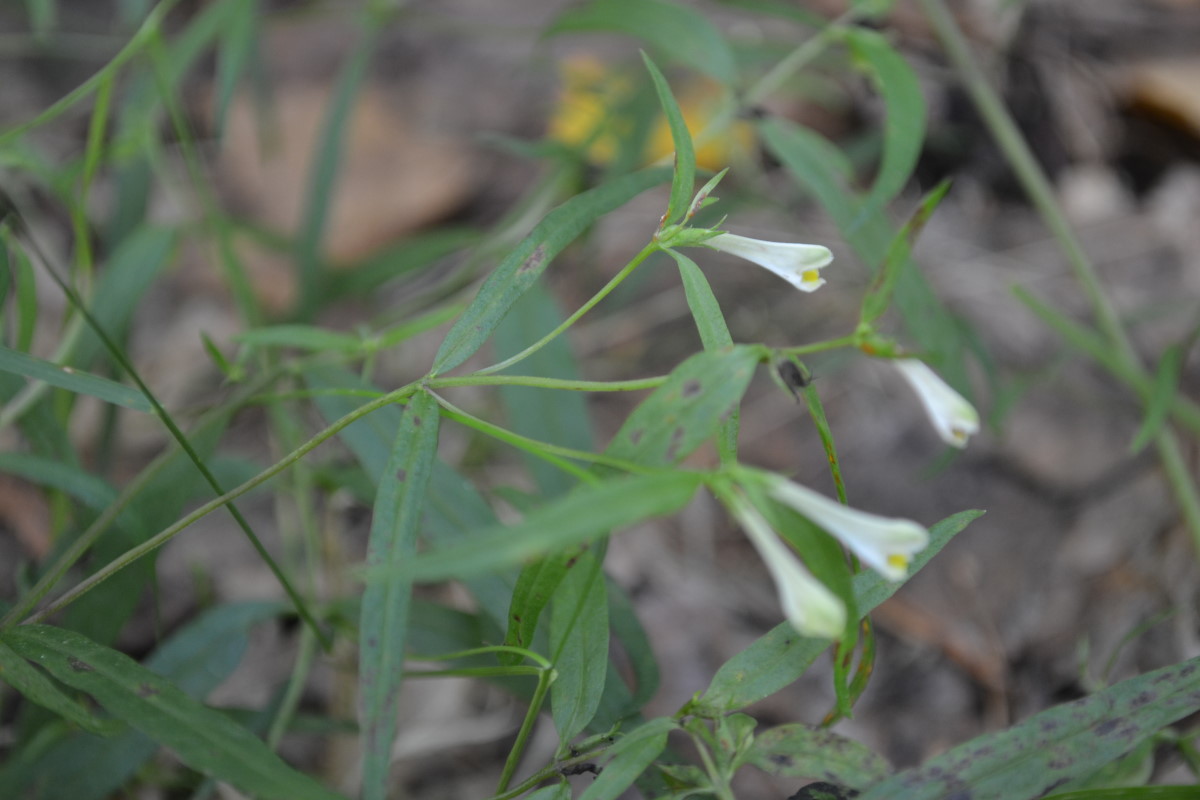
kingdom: Plantae
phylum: Tracheophyta
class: Magnoliopsida
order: Lamiales
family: Orobanchaceae
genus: Melampyrum
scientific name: Melampyrum pratense
